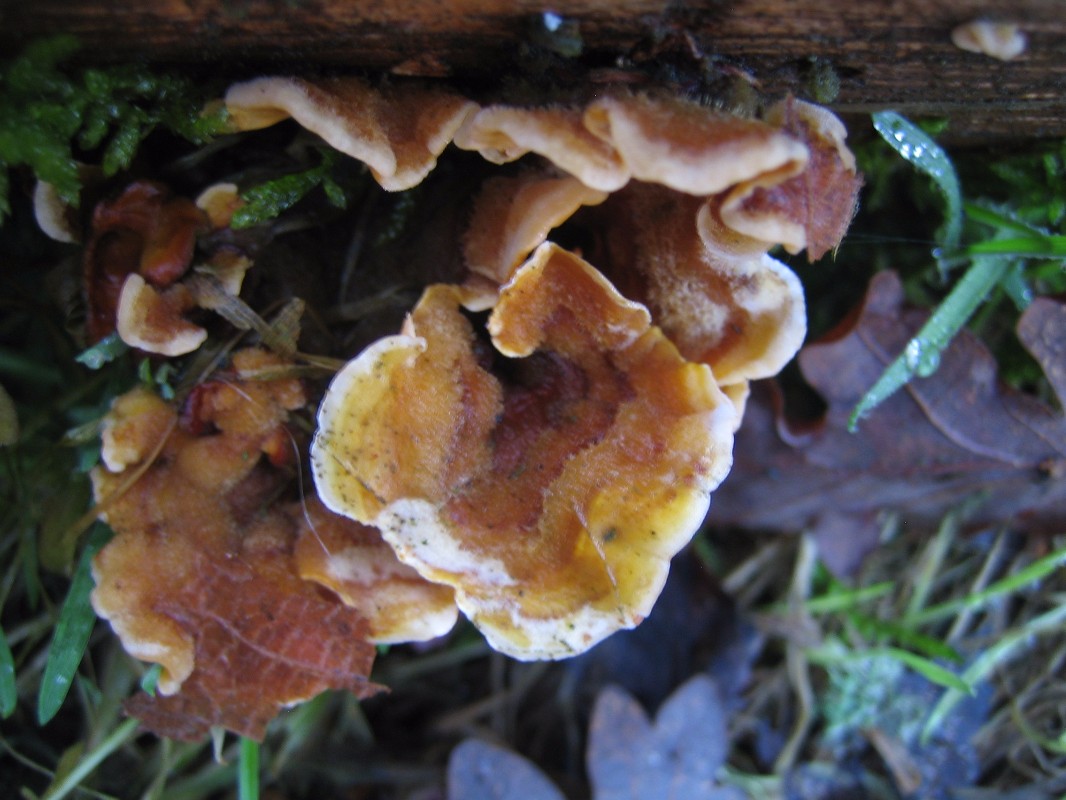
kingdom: Fungi
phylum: Basidiomycota
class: Agaricomycetes
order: Russulales
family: Stereaceae
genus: Stereum
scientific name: Stereum hirsutum
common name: håret lædersvamp
